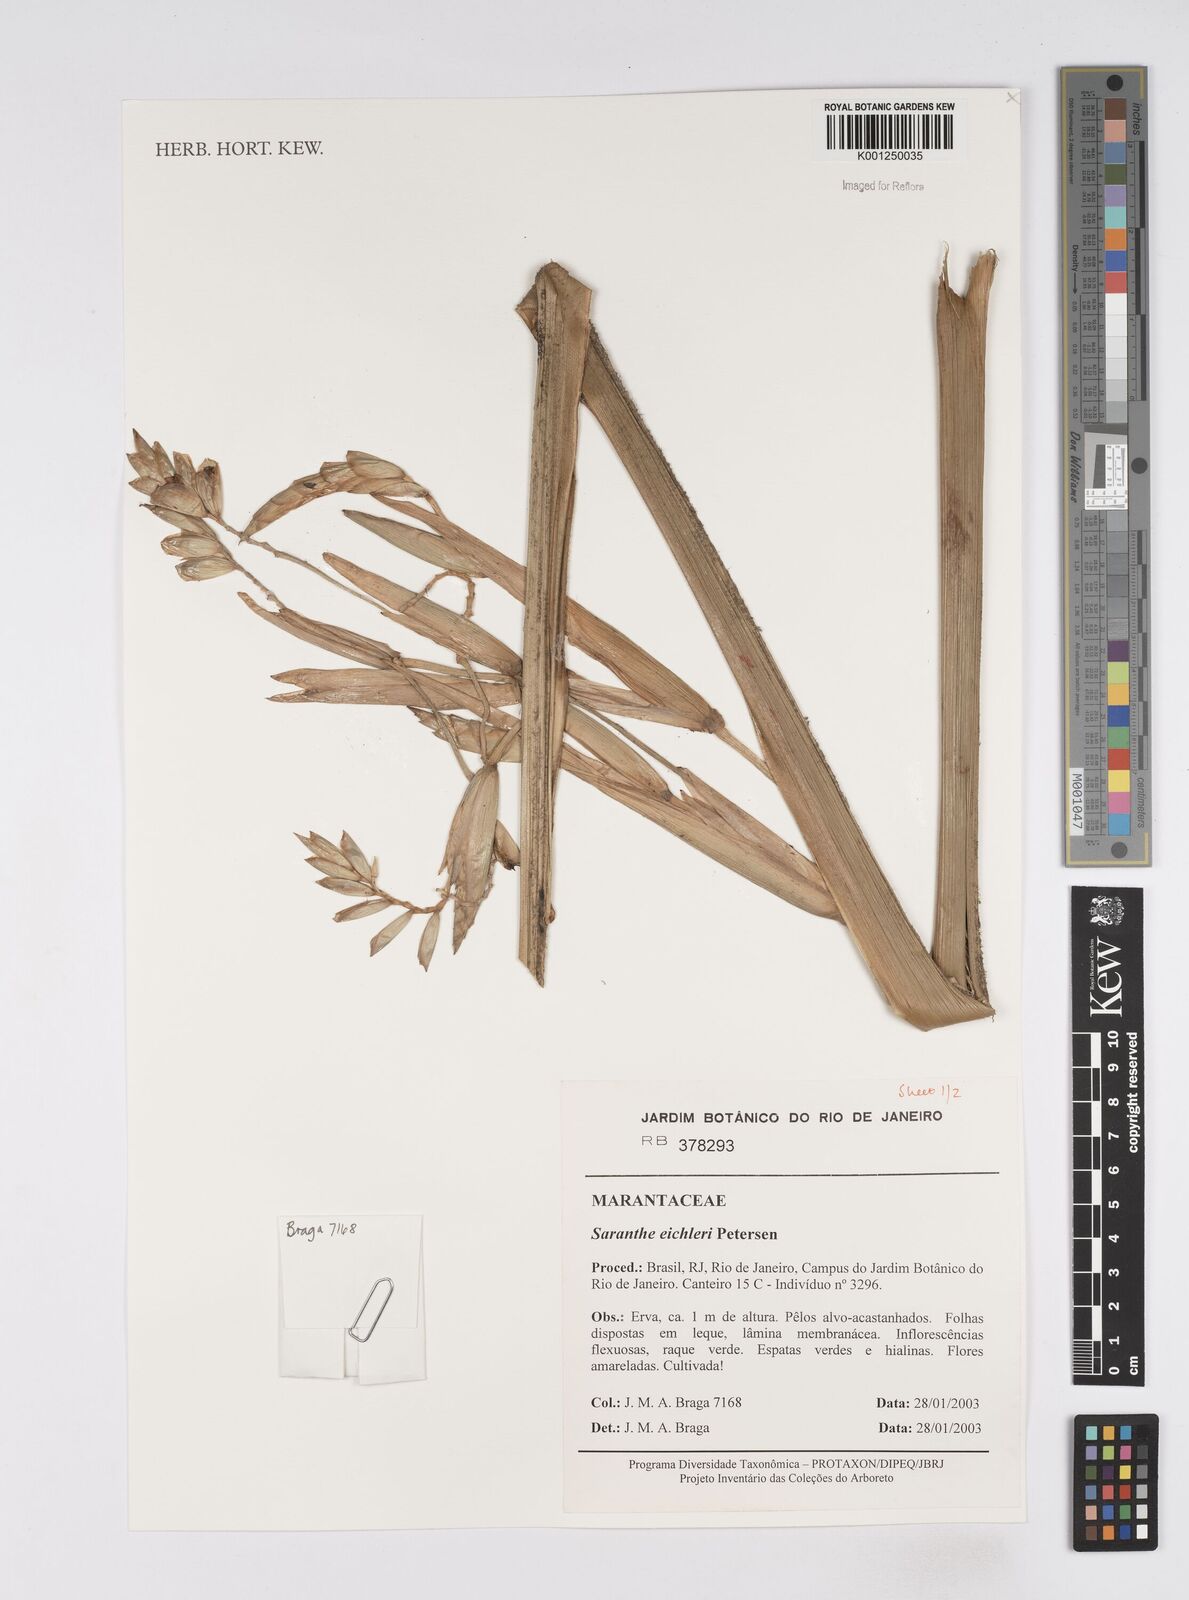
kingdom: Plantae
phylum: Tracheophyta
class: Liliopsida
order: Zingiberales
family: Marantaceae
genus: Saranthe
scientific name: Saranthe eichleri
